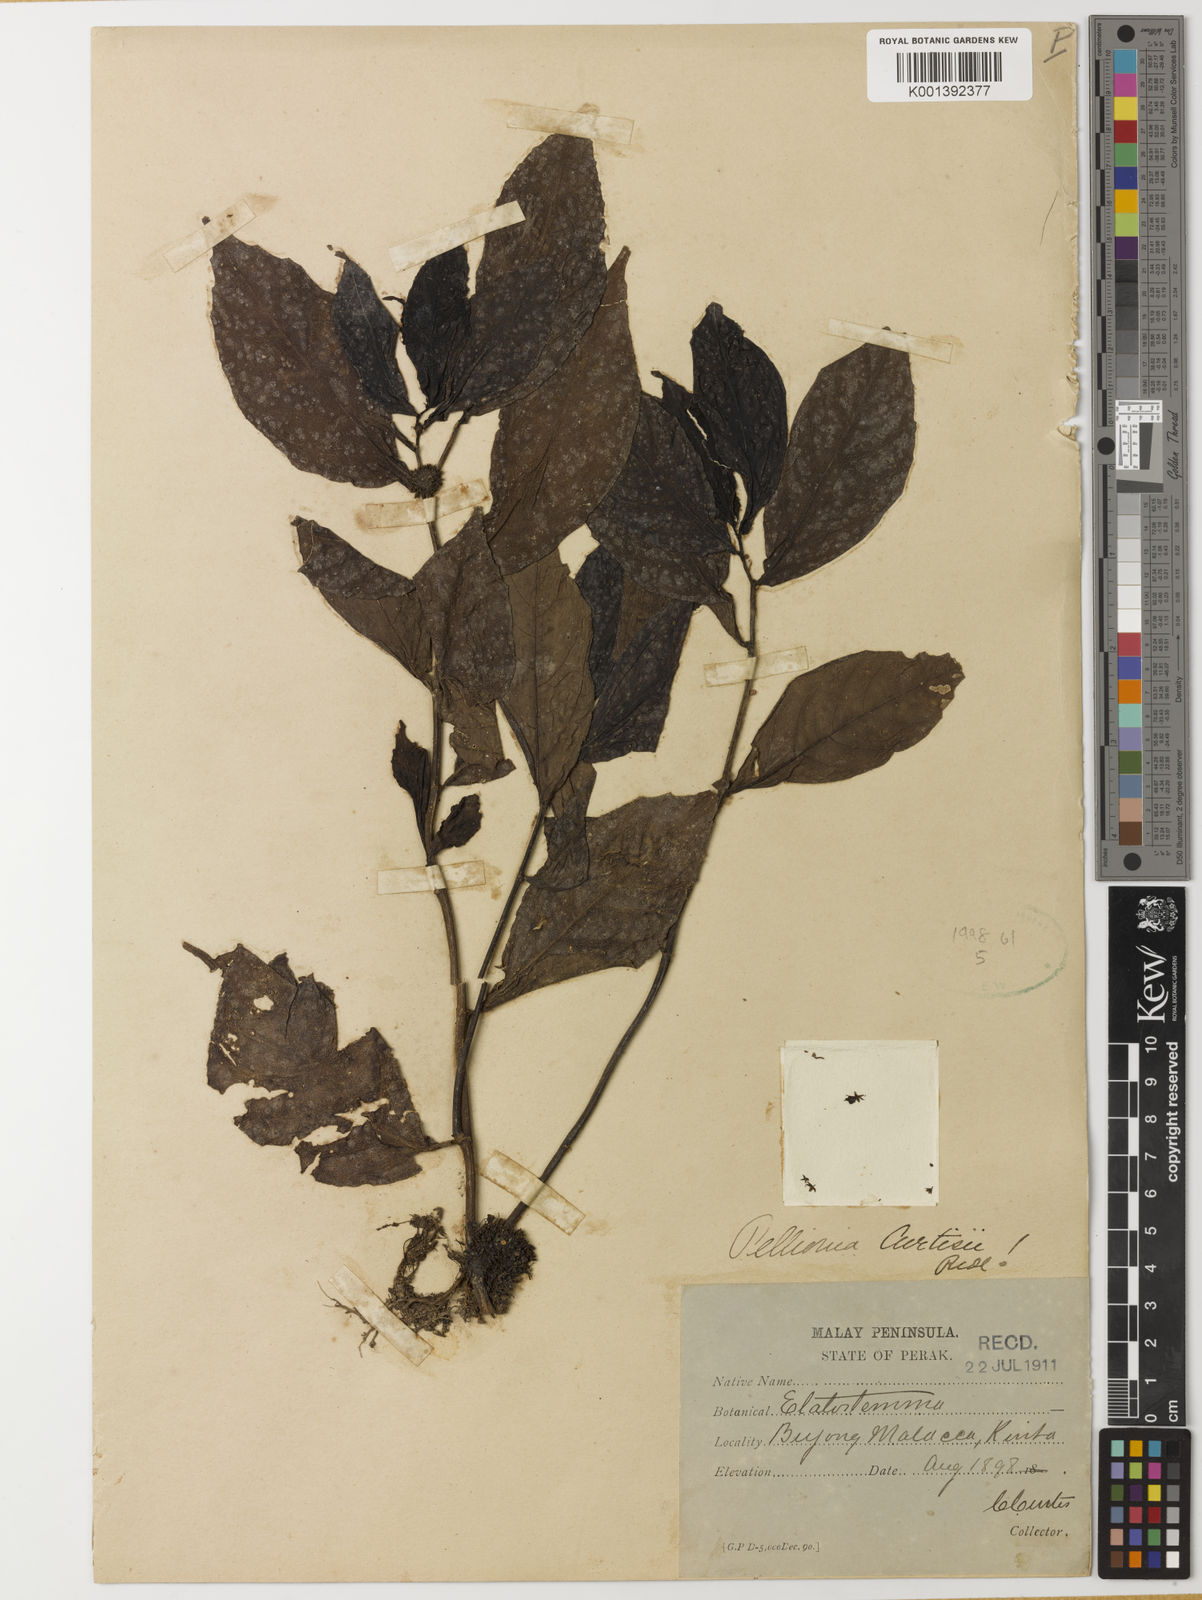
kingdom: Plantae
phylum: Tracheophyta
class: Magnoliopsida
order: Rosales
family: Urticaceae
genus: Procris
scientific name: Procris curtisii
